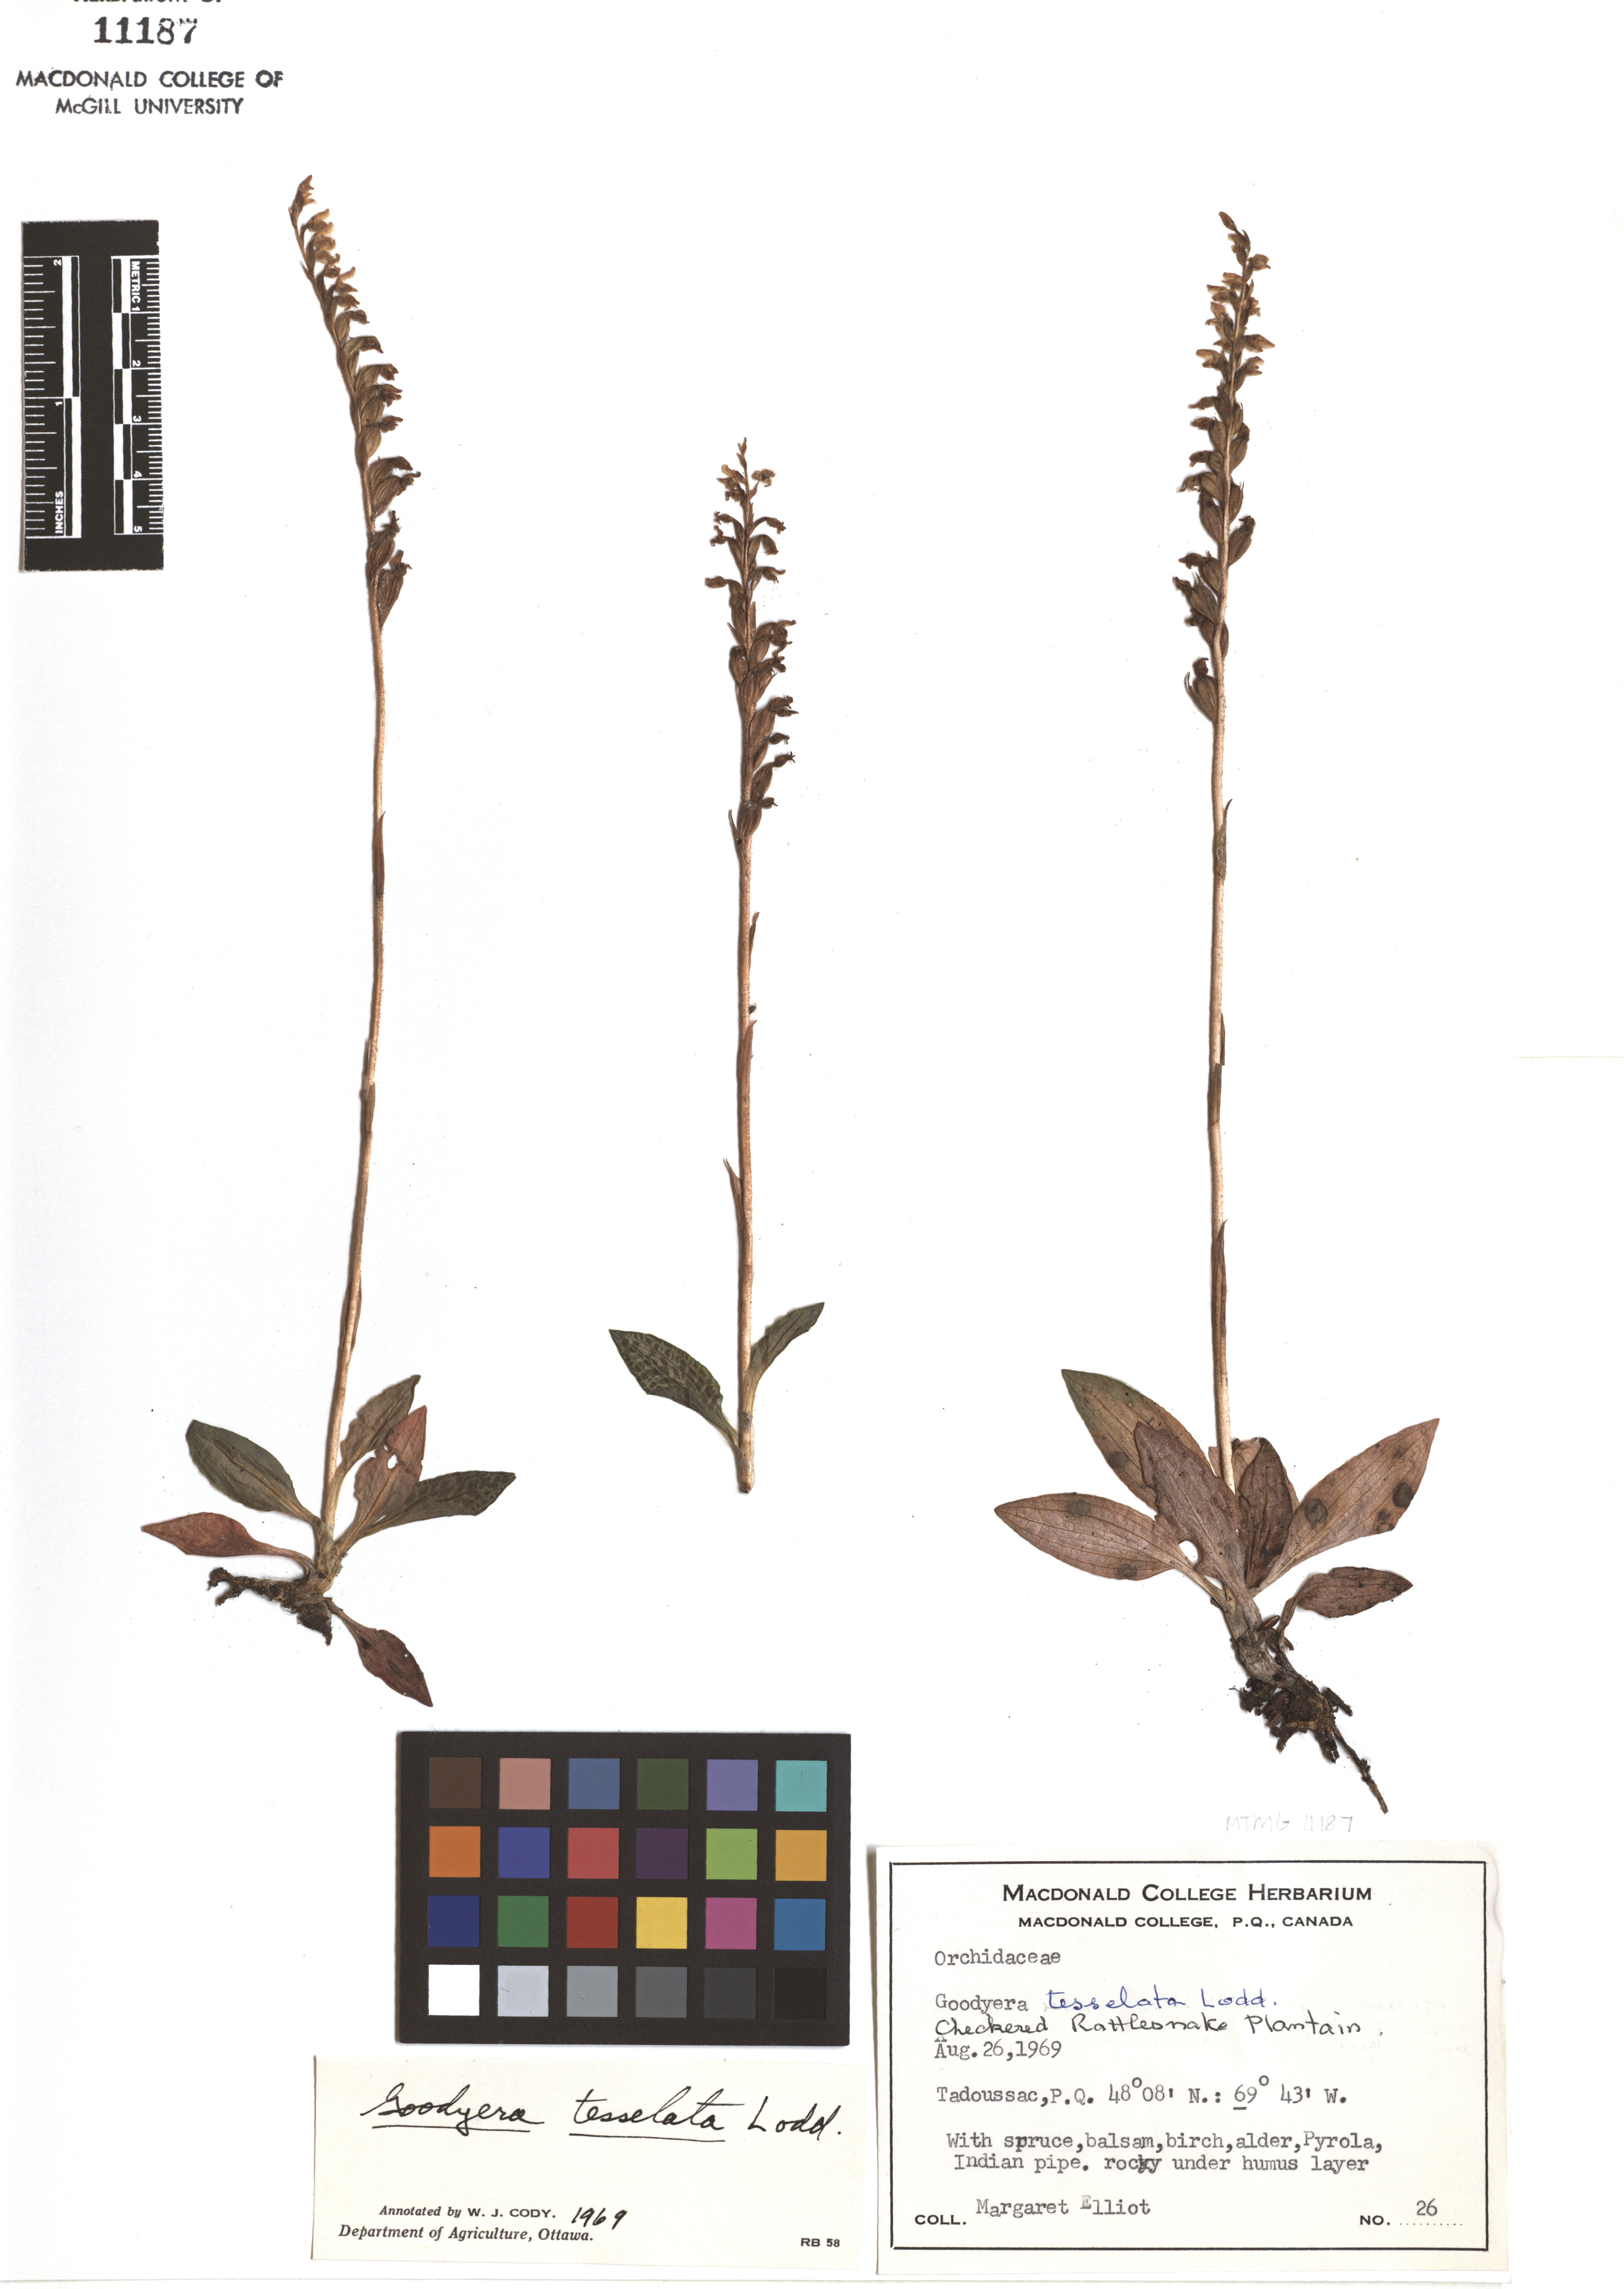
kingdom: Plantae
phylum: Tracheophyta
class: Liliopsida
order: Asparagales
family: Orchidaceae
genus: Goodyera
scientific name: Goodyera tesselata
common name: Checkered rattlesnake-plantain
